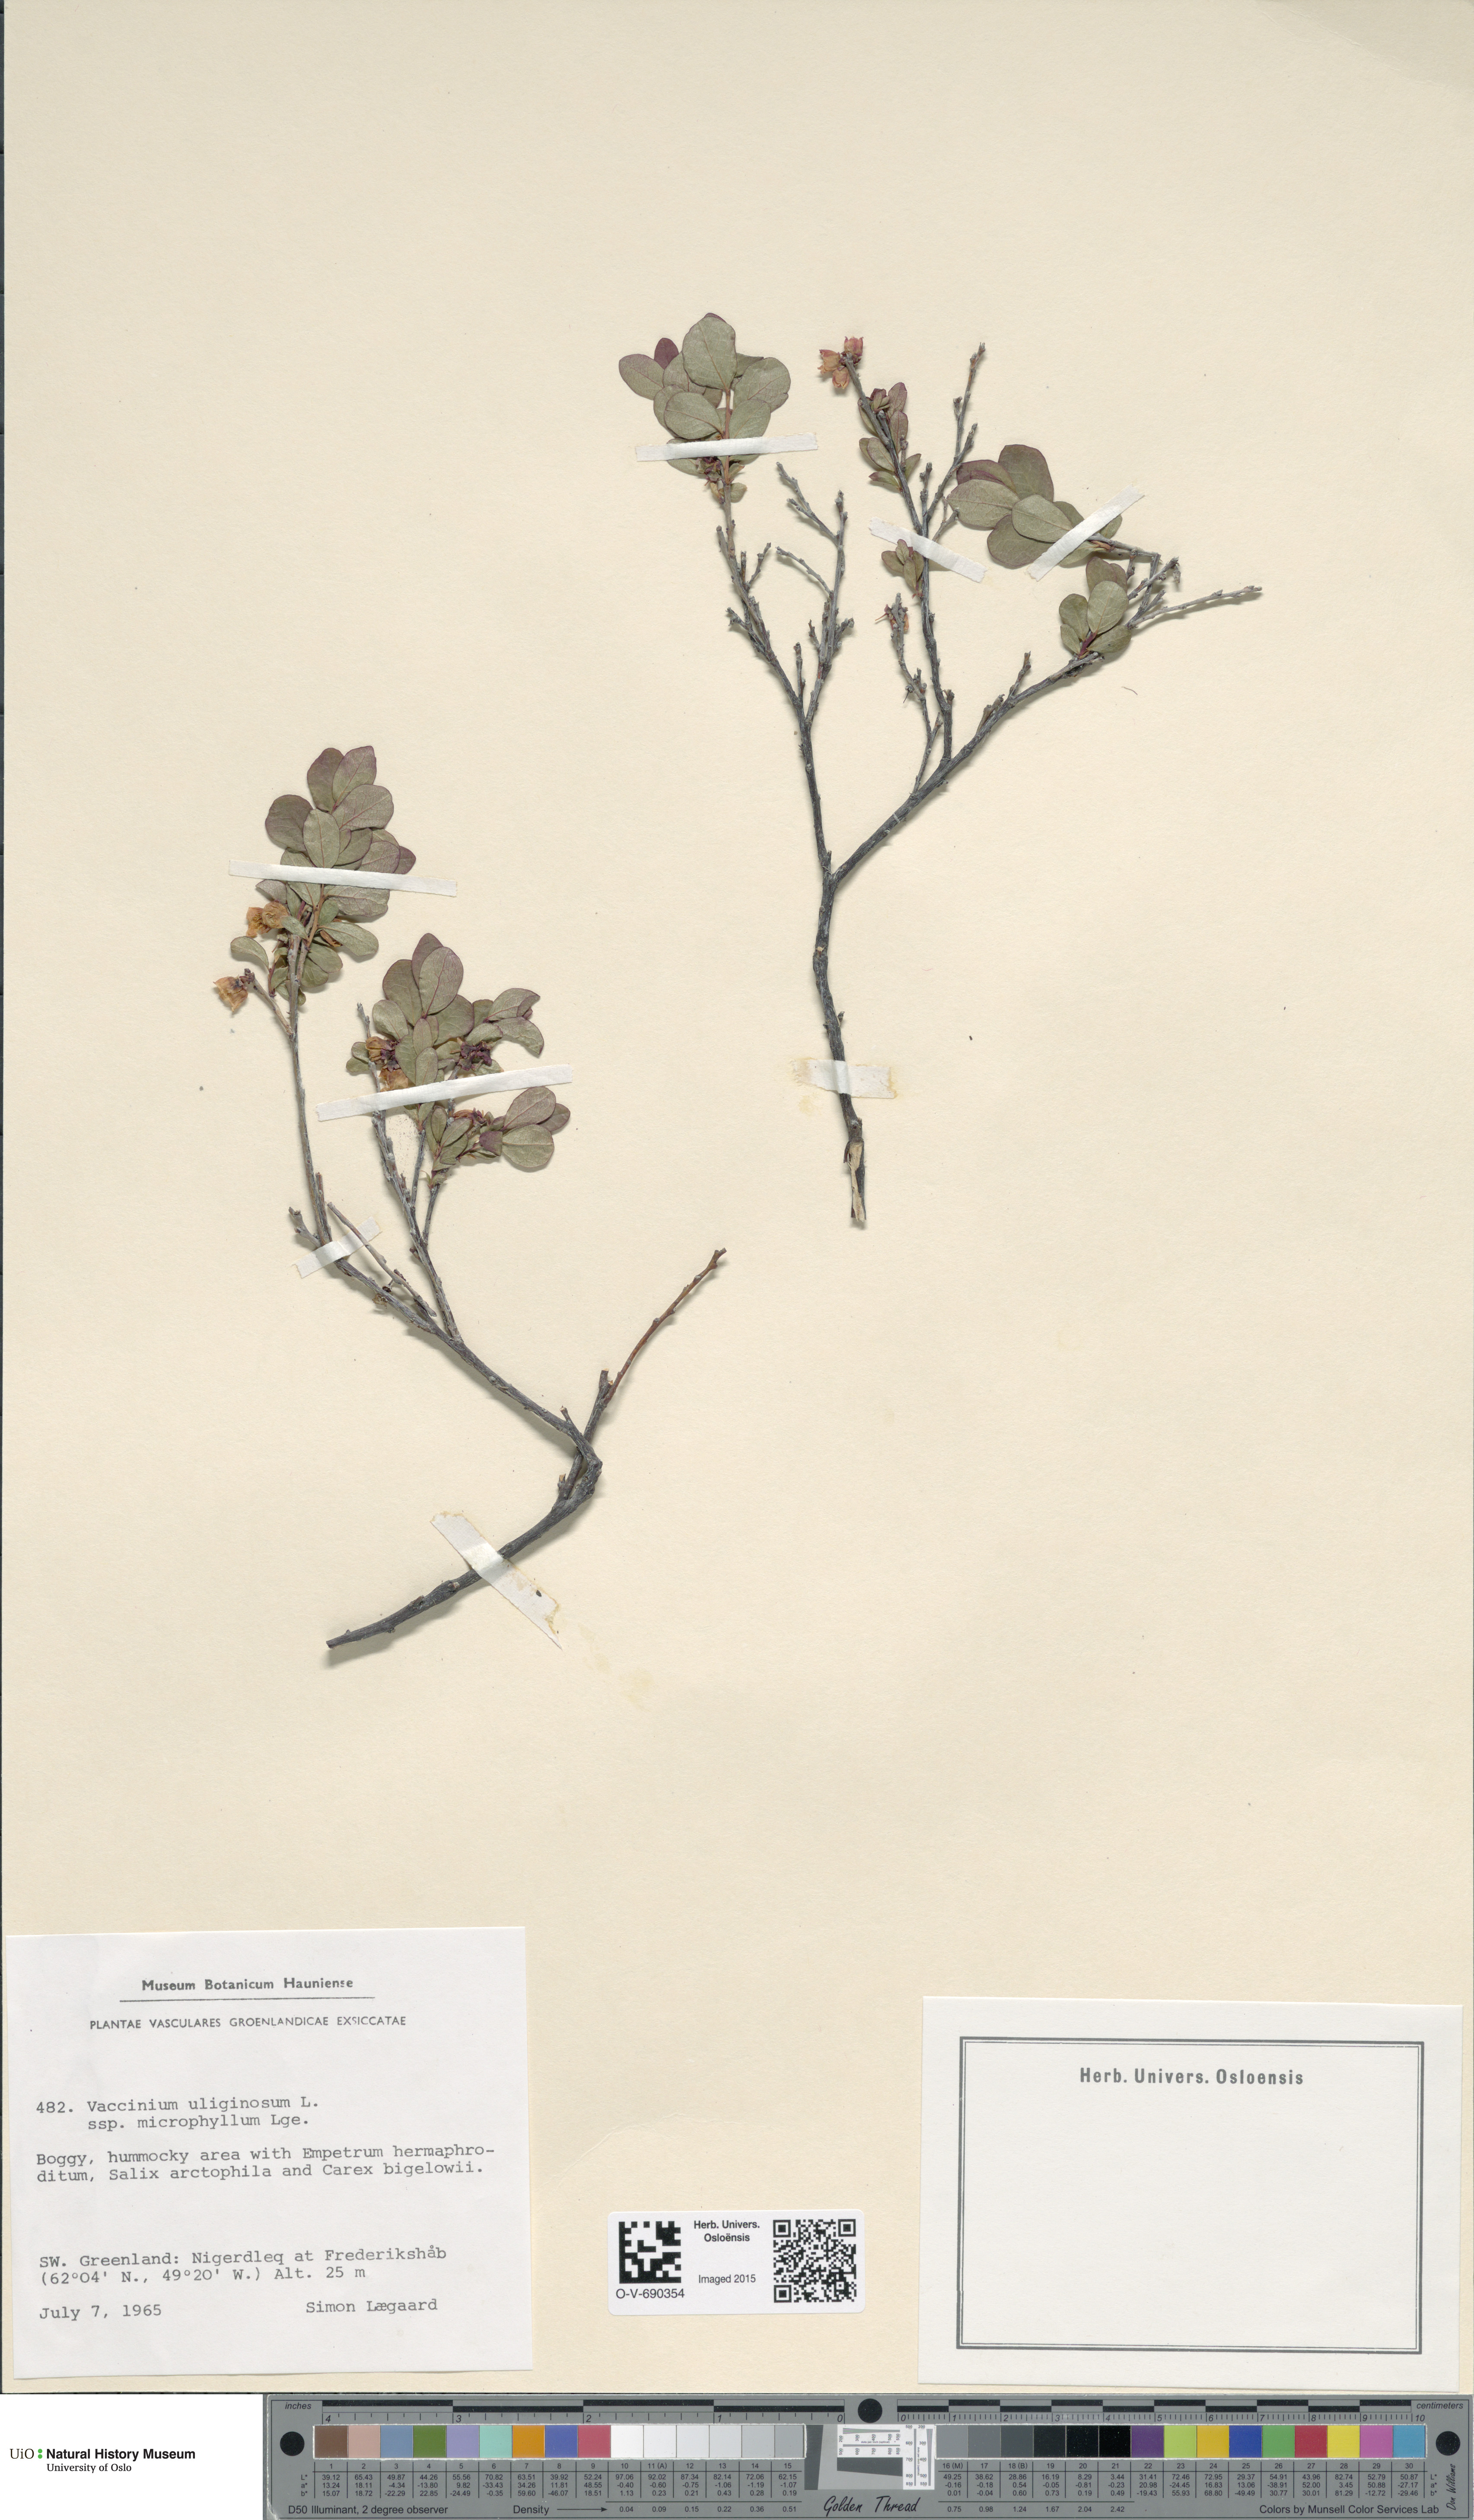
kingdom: Plantae
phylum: Tracheophyta
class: Magnoliopsida
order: Ericales
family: Ericaceae
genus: Vaccinium
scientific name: Vaccinium uliginosum
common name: Bog bilberry
